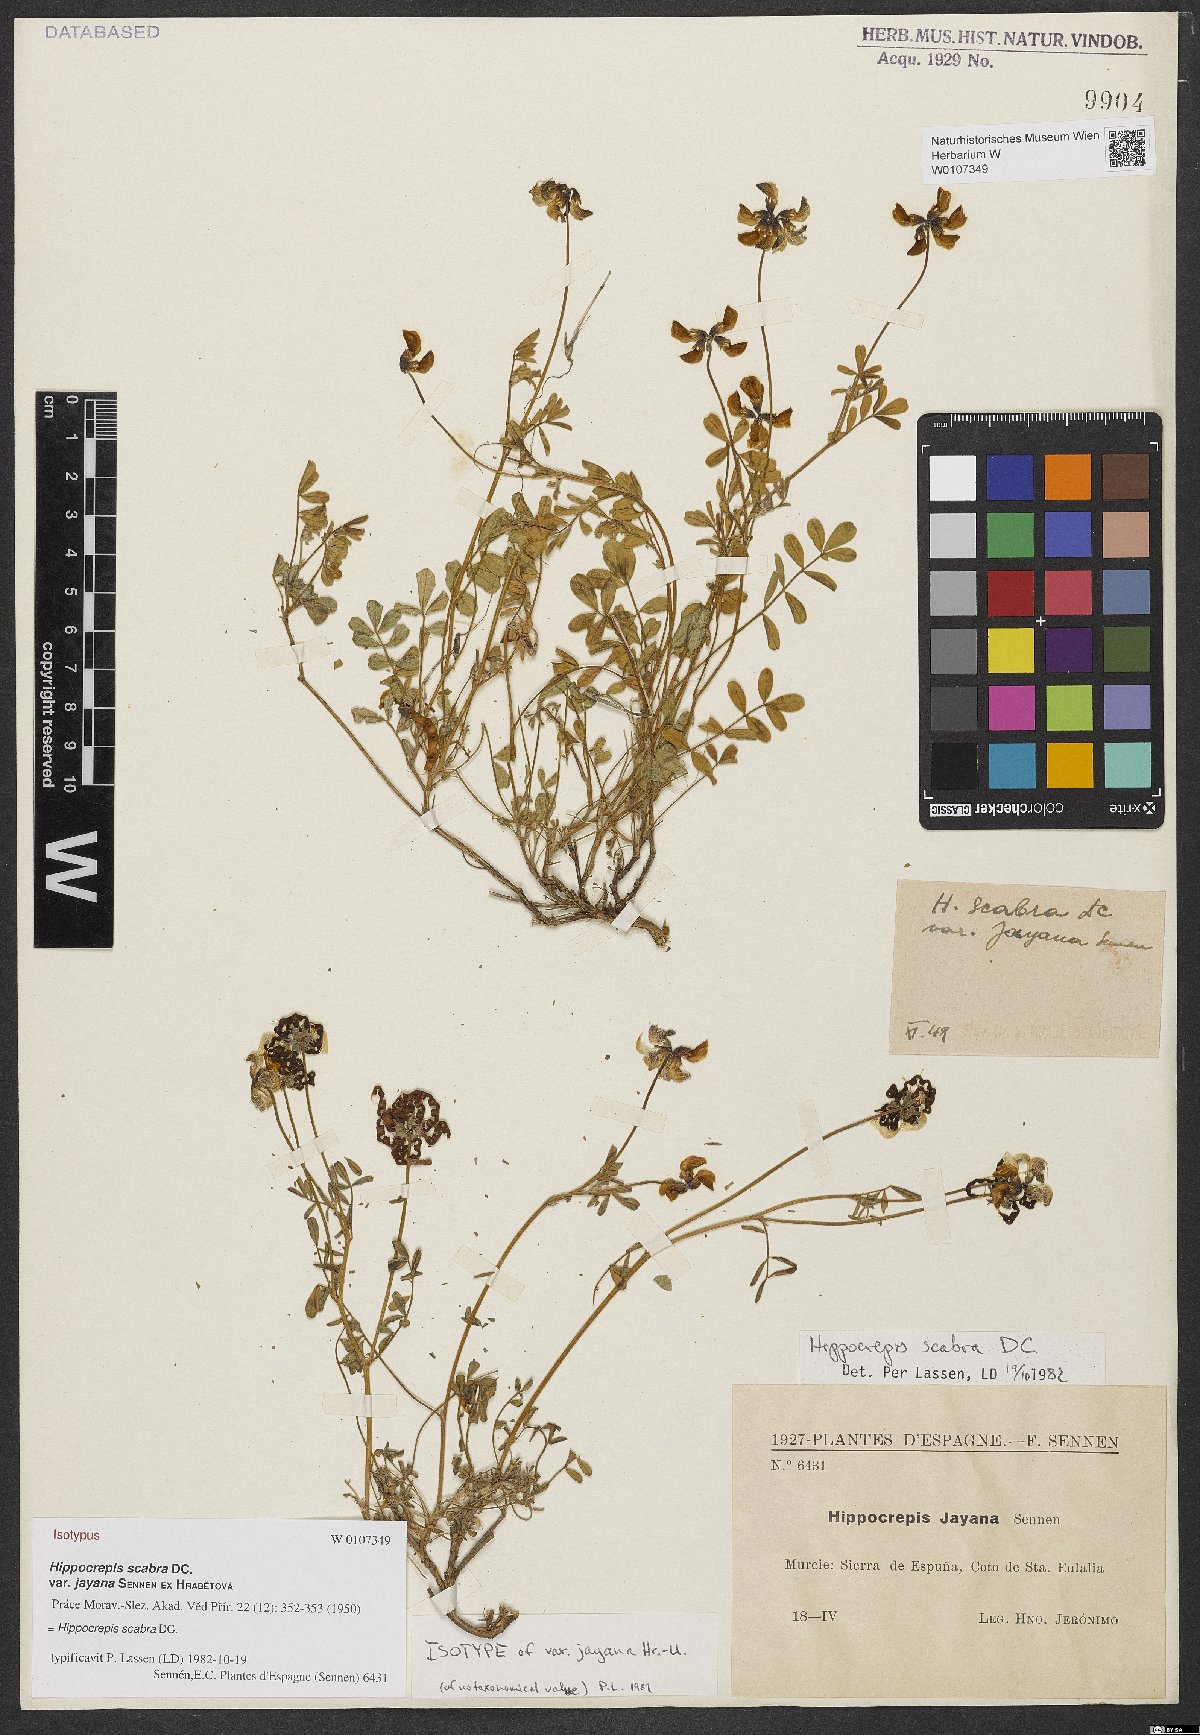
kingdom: Plantae
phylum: Tracheophyta
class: Magnoliopsida
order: Fabales
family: Fabaceae
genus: Hippocrepis
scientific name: Hippocrepis scabra
